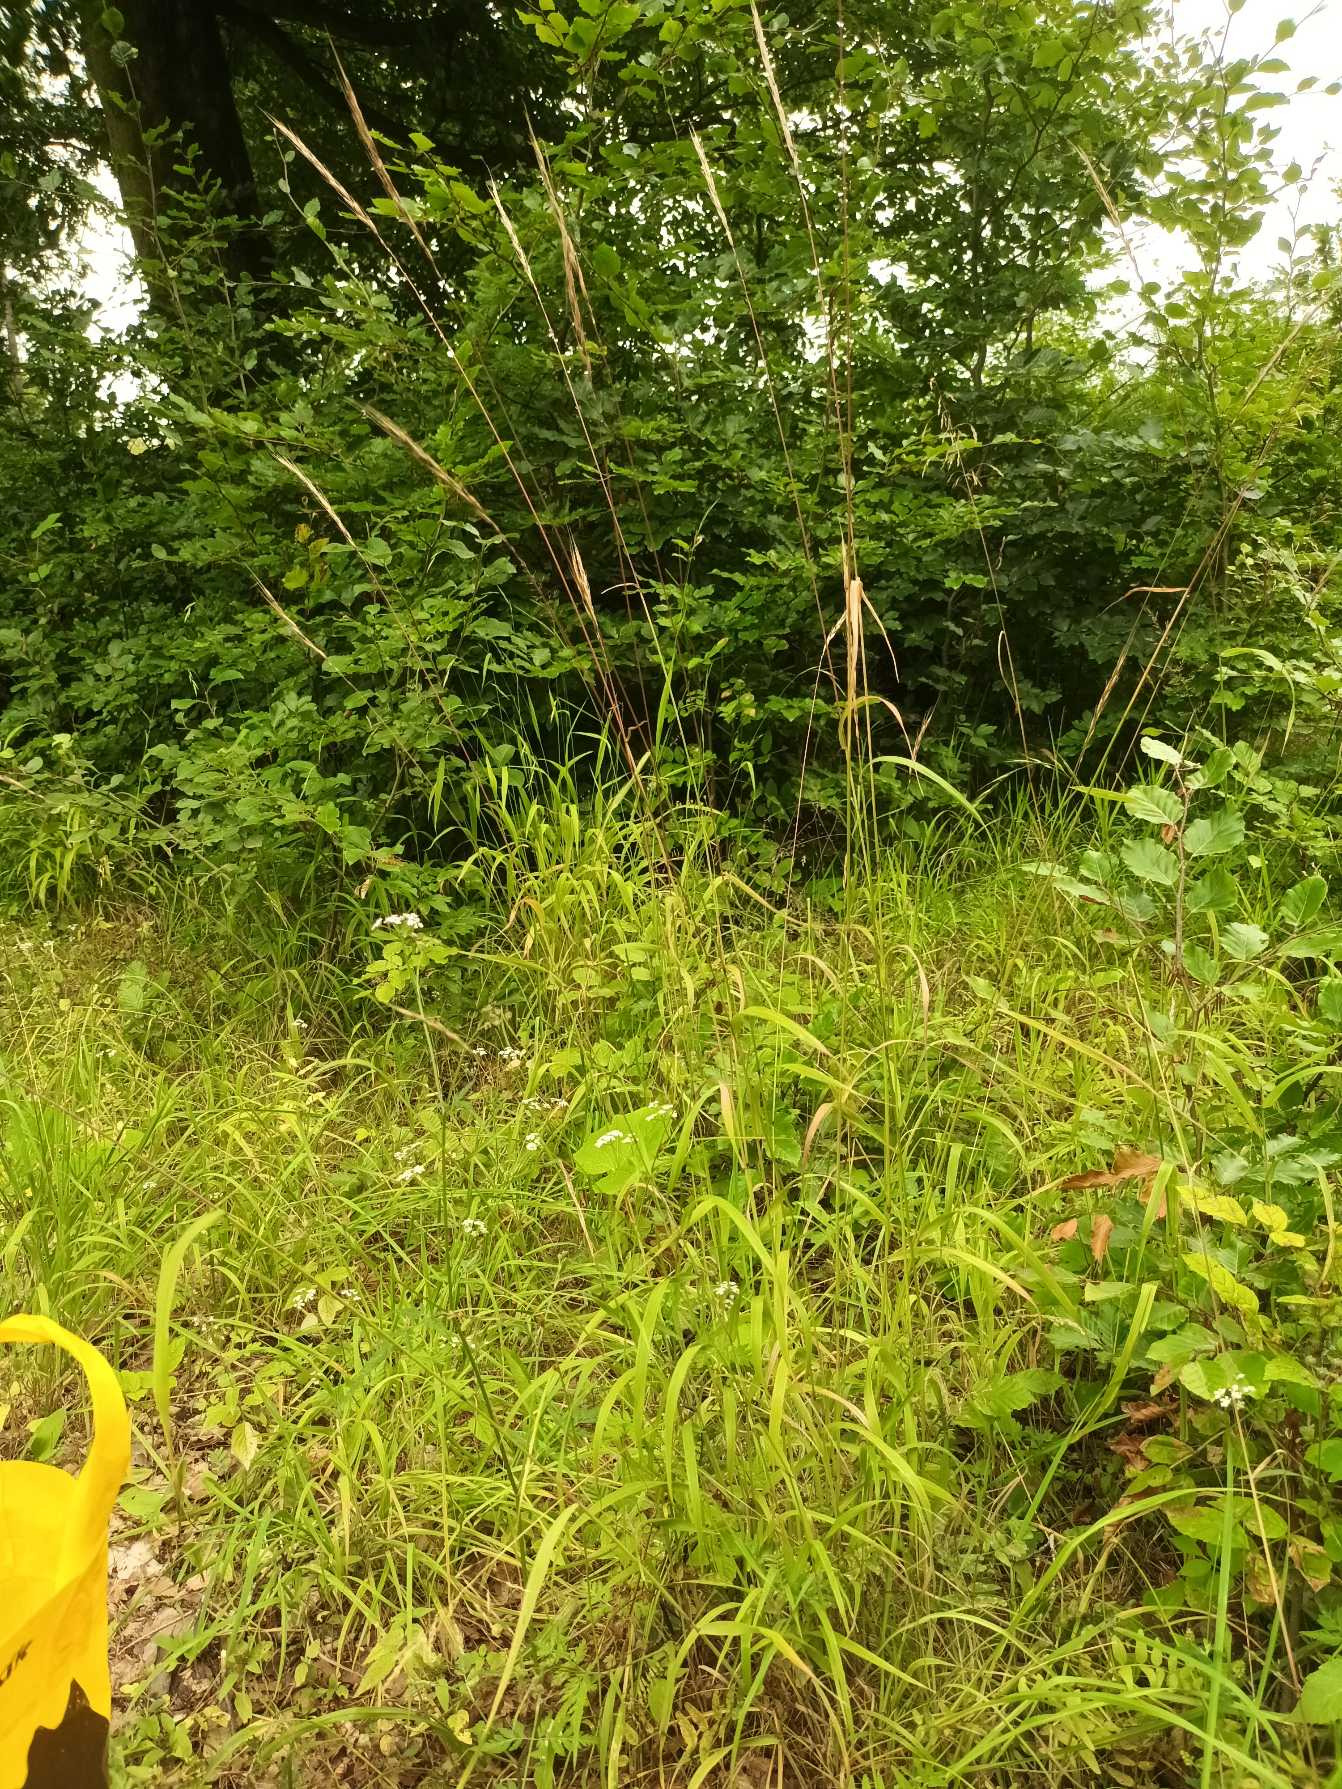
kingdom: Plantae
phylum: Tracheophyta
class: Liliopsida
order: Poales
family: Poaceae
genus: Elymus
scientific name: Elymus caninus
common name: Hundekvik
